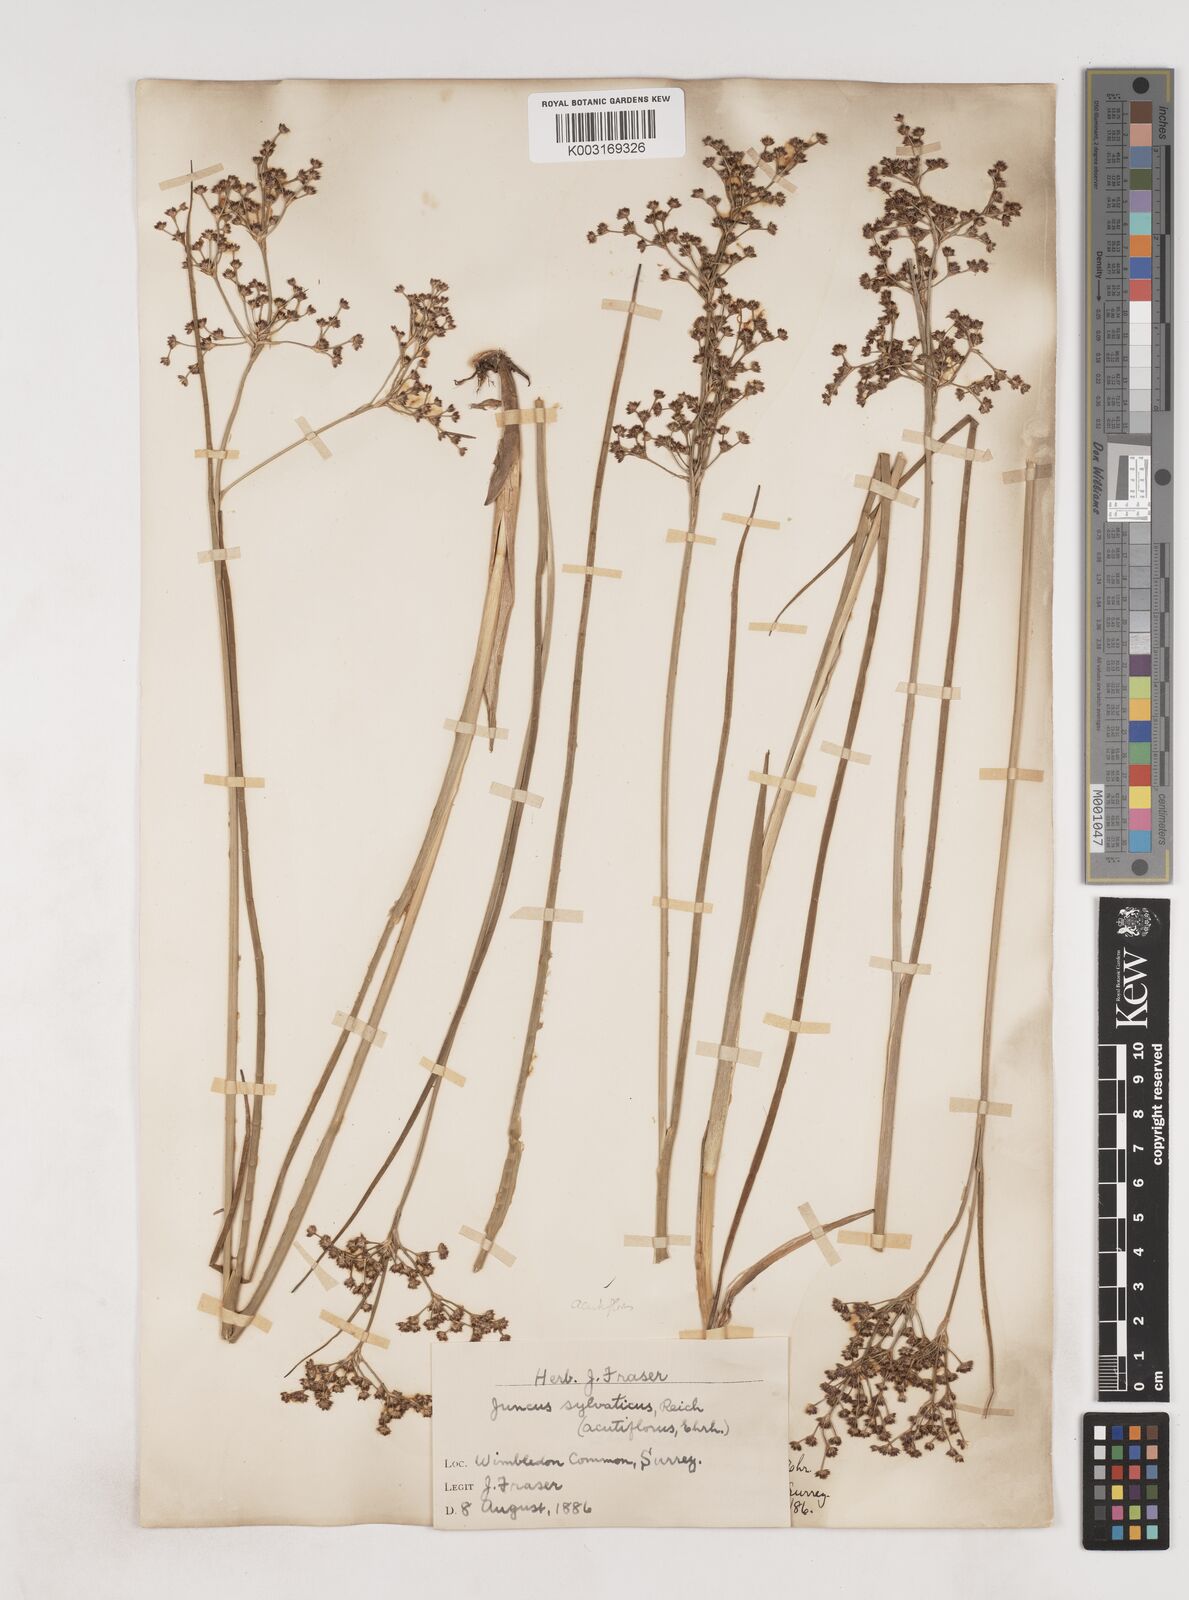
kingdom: Plantae
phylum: Tracheophyta
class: Liliopsida
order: Poales
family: Juncaceae
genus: Juncus
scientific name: Juncus acutiflorus
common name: Sharp-flowered rush
